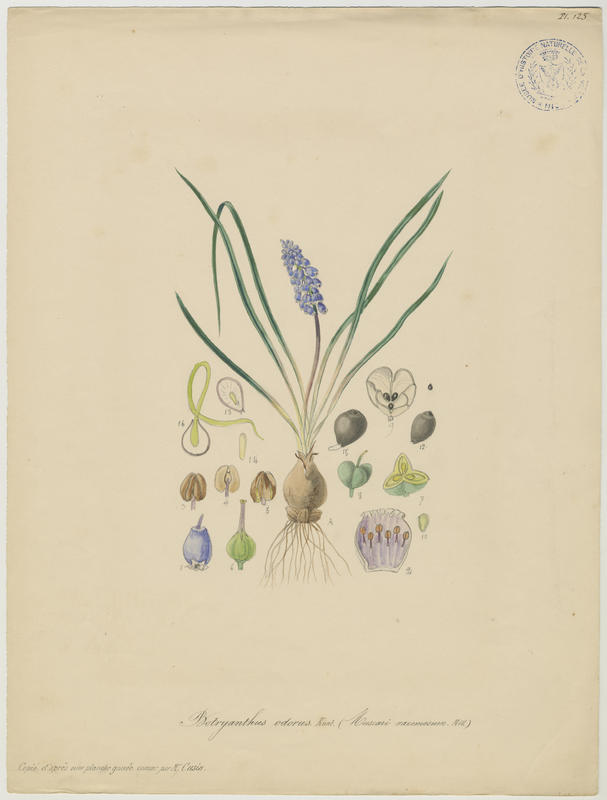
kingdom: Plantae
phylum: Tracheophyta
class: Liliopsida
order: Asparagales
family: Asparagaceae
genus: Muscari
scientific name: Muscari neglectum
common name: Grape-hyacinth
